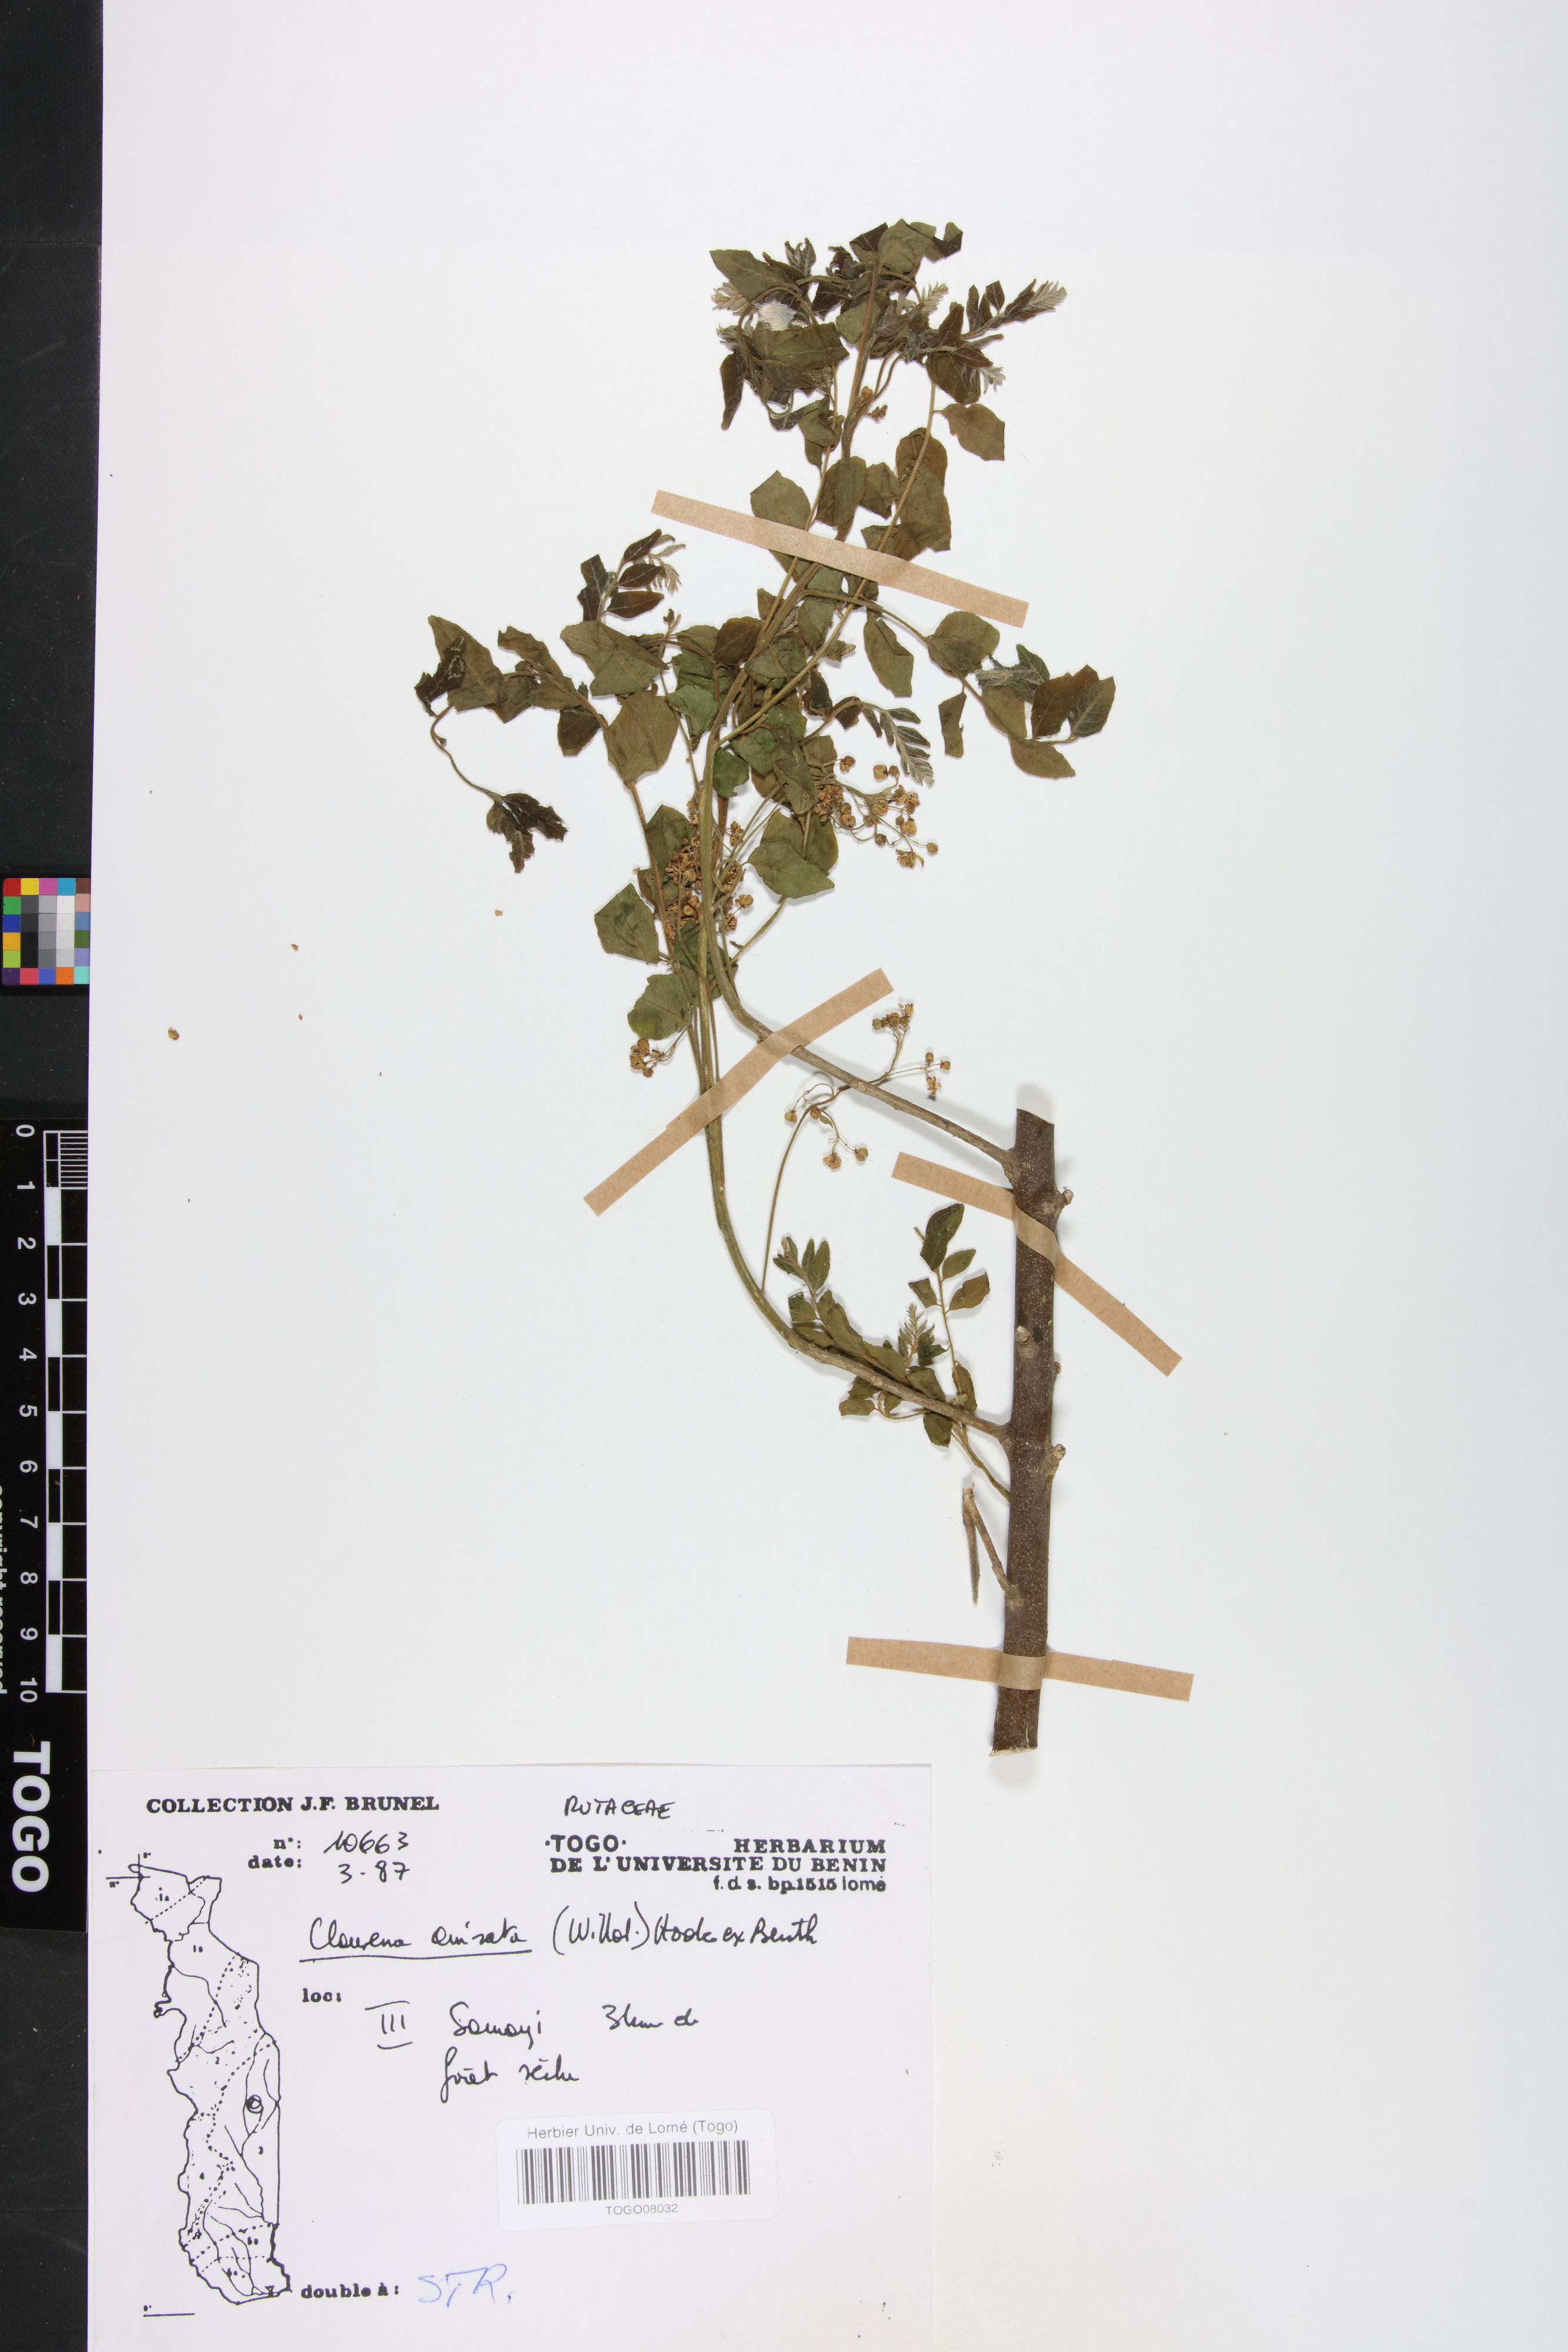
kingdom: Plantae
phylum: Tracheophyta
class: Magnoliopsida
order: Sapindales
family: Rutaceae
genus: Clausena
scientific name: Clausena anisata
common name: Horsewood
